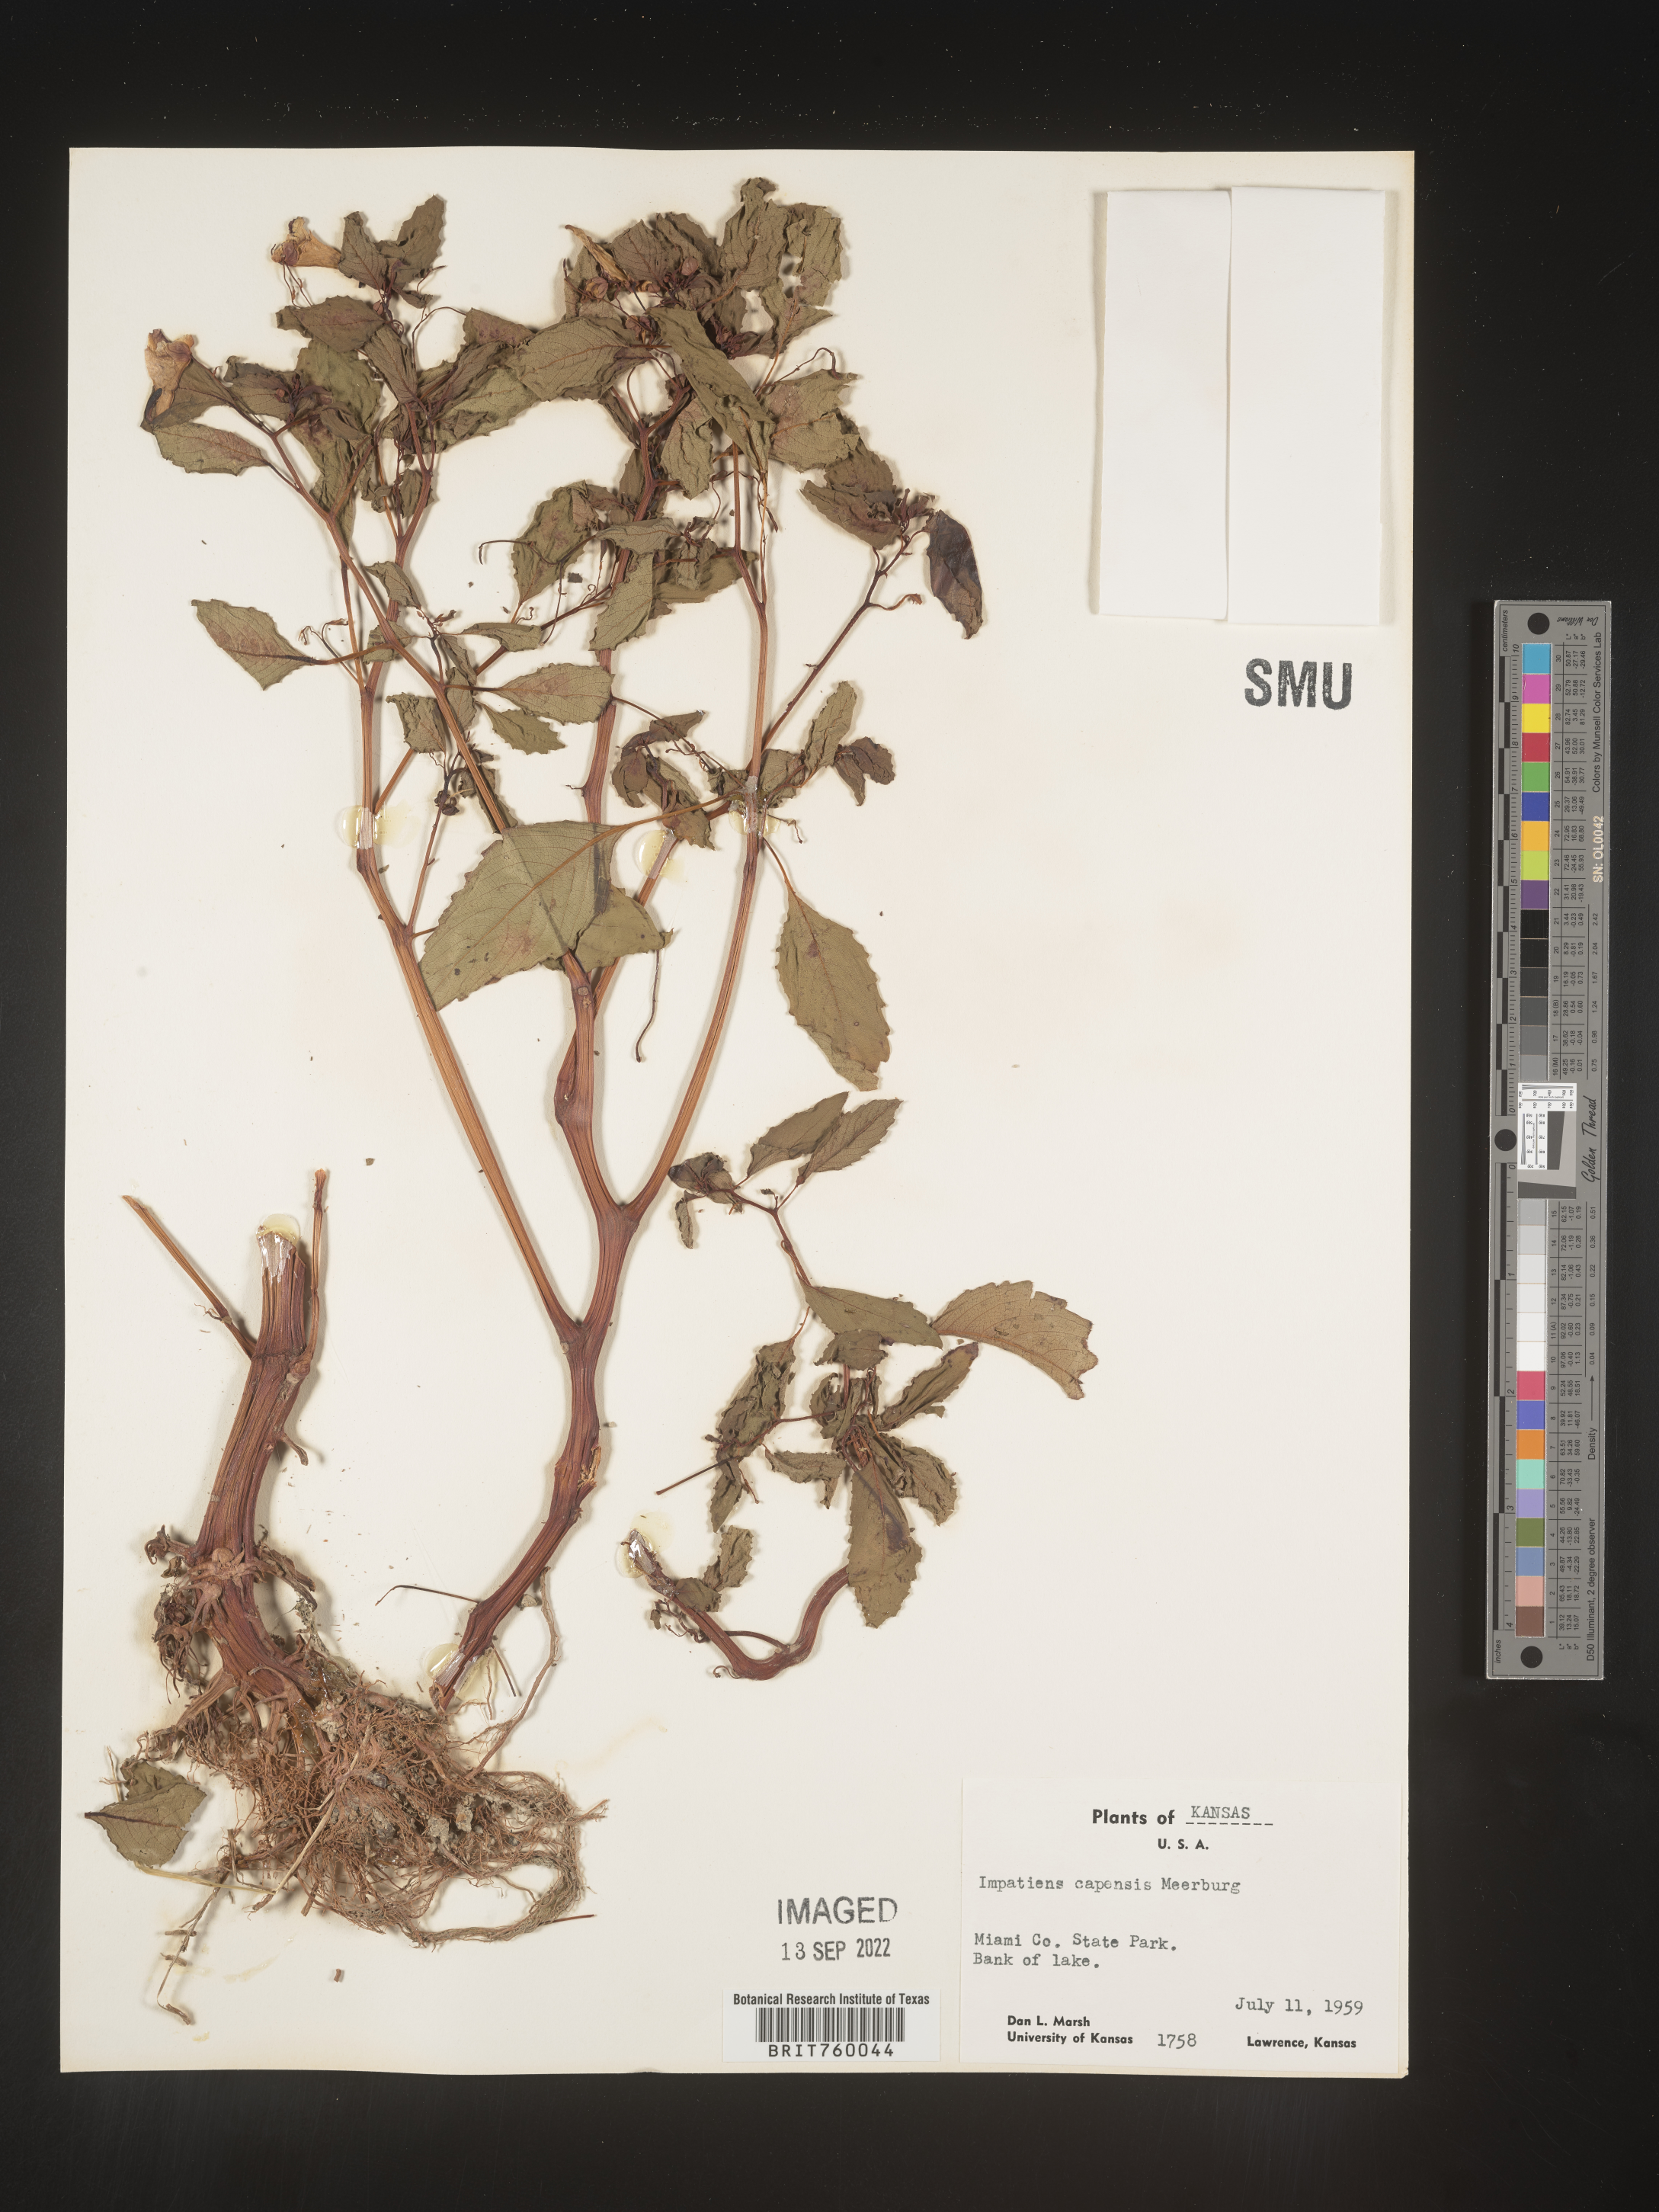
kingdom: Plantae
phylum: Tracheophyta
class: Magnoliopsida
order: Ericales
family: Balsaminaceae
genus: Impatiens
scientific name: Impatiens capensis
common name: Orange balsam
